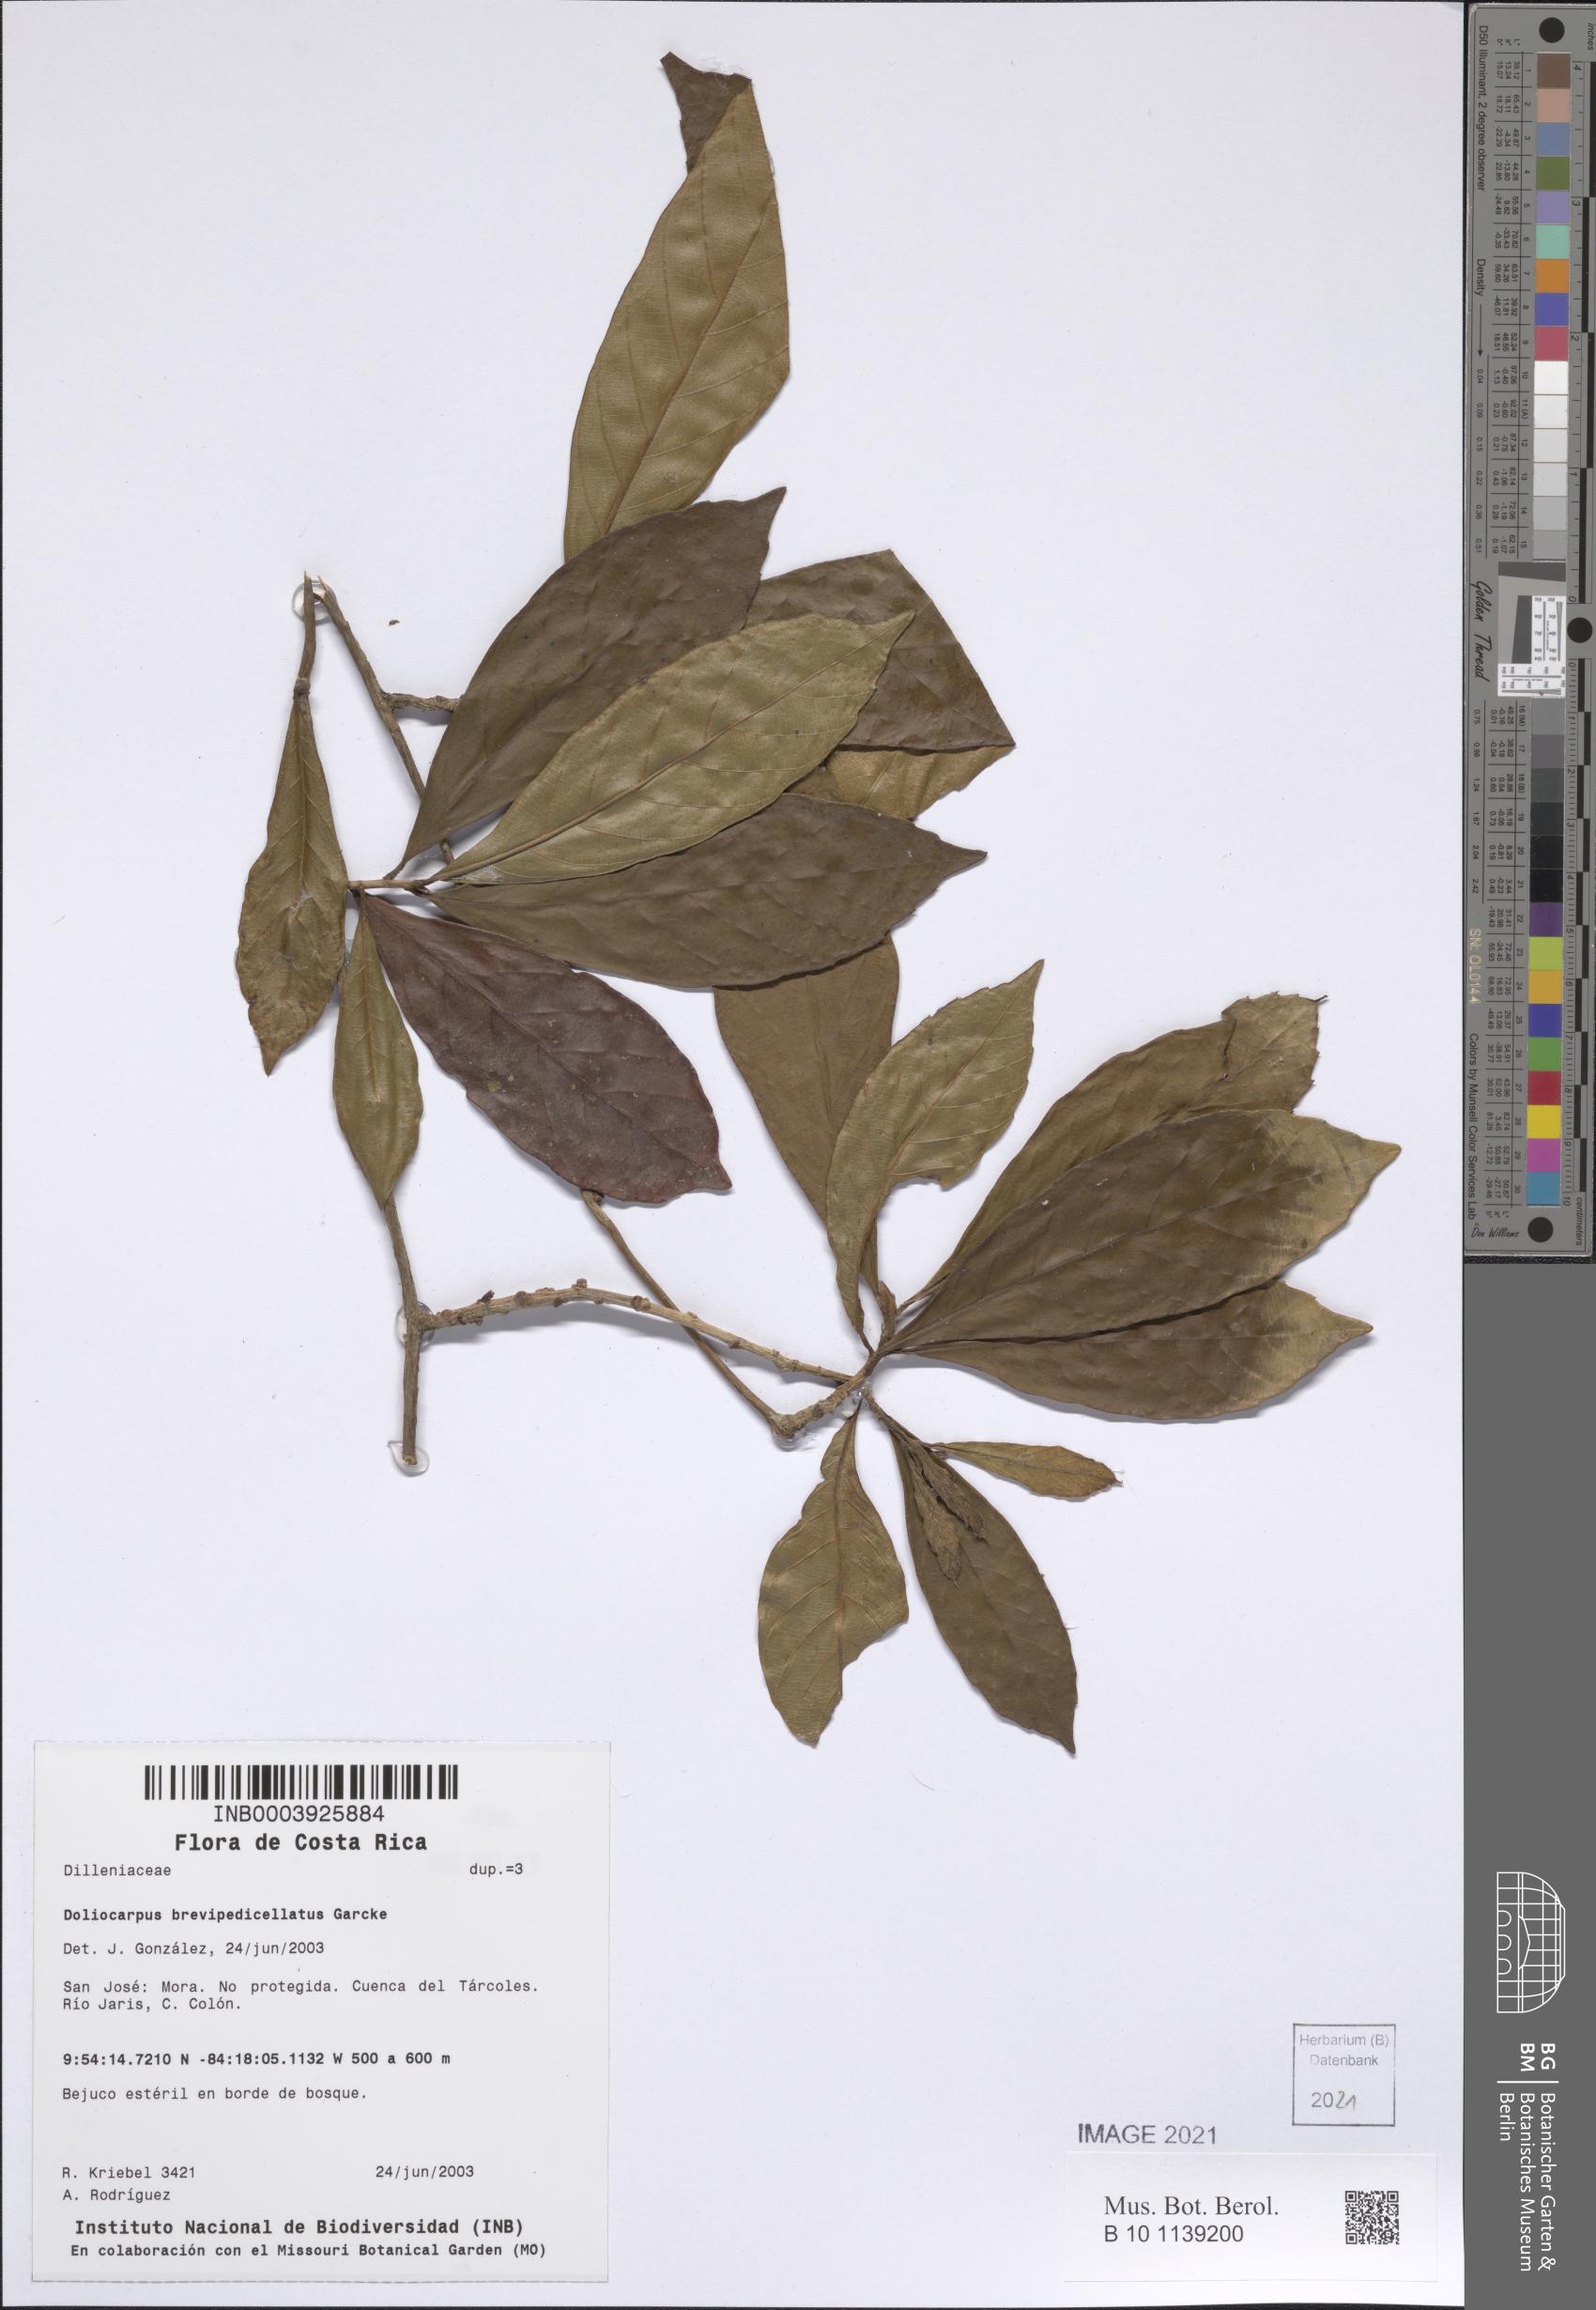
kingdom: Plantae
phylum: Tracheophyta
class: Magnoliopsida
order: Dilleniales
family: Dilleniaceae
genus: Doliocarpus
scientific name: Doliocarpus dentatus
